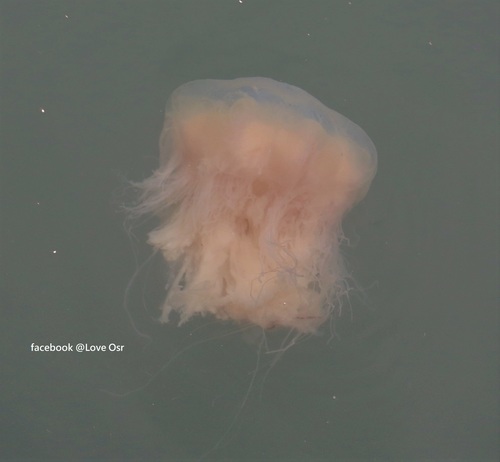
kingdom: Animalia
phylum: Cnidaria
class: Scyphozoa
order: Semaeostomeae
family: Cyaneidae
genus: Cyanea
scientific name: Cyanea nozakii
